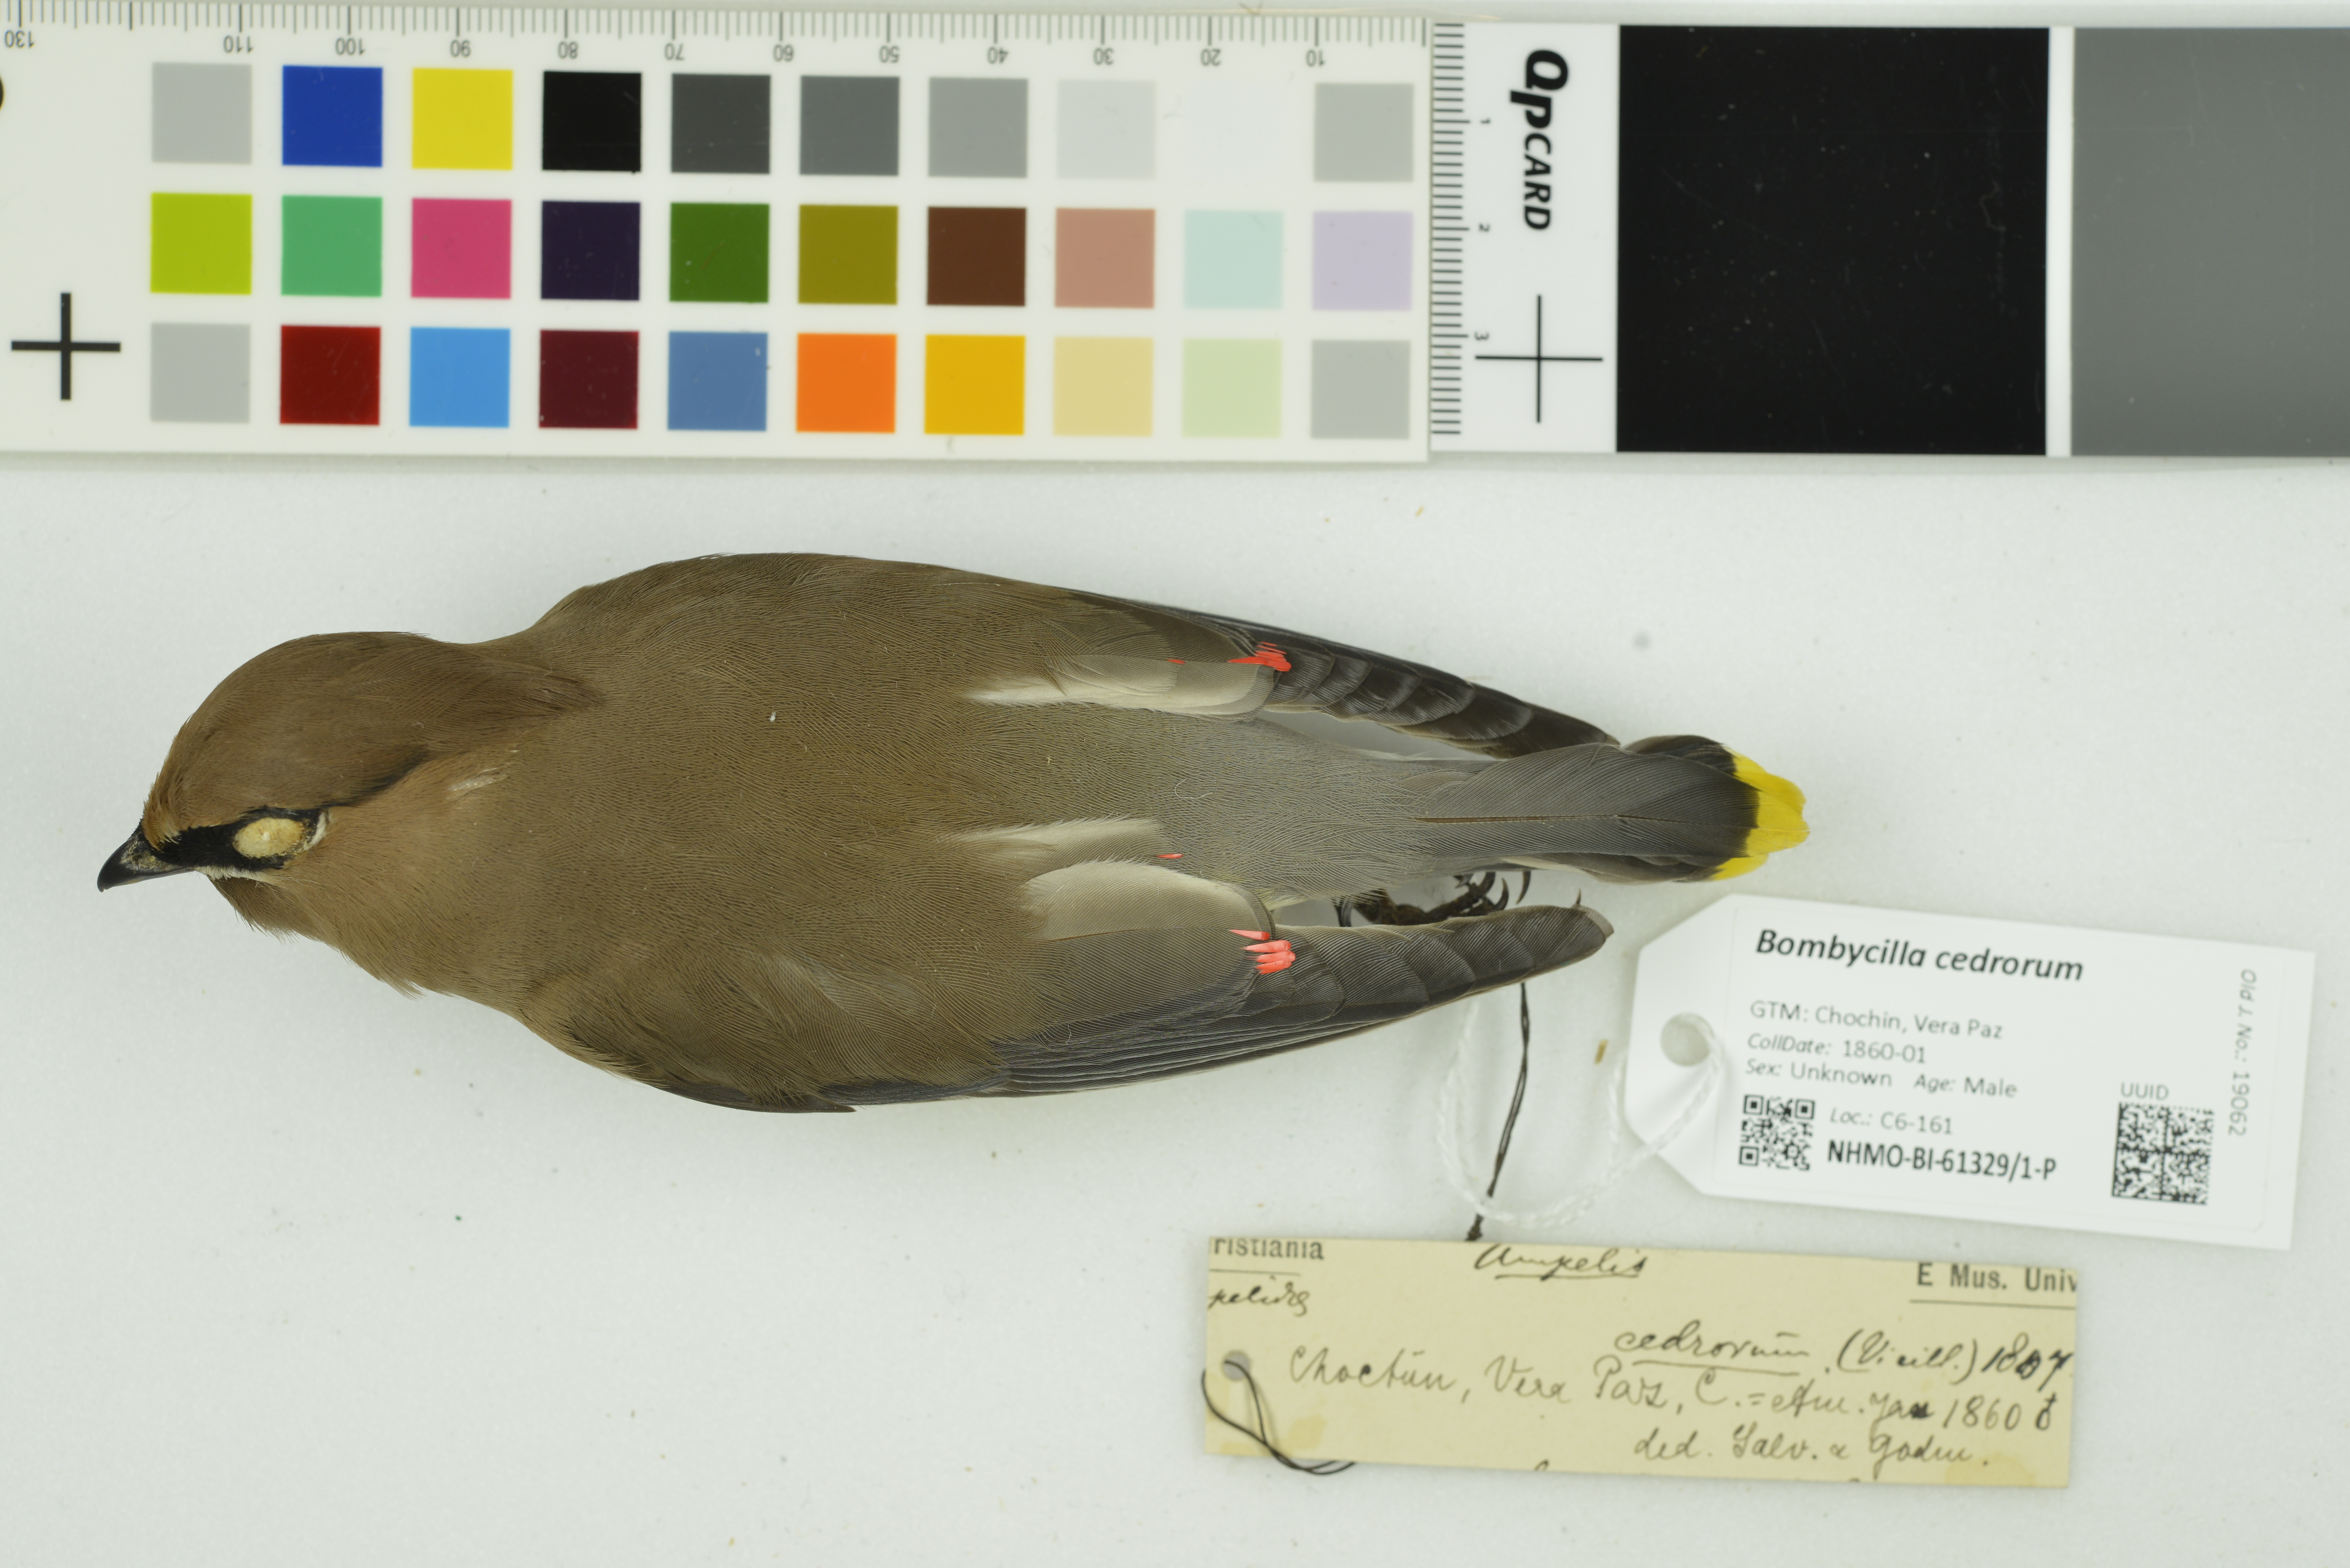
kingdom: Animalia
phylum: Chordata
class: Aves
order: Passeriformes
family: Bombycillidae
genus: Bombycilla
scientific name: Bombycilla cedrorum
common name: Cedar waxwing
